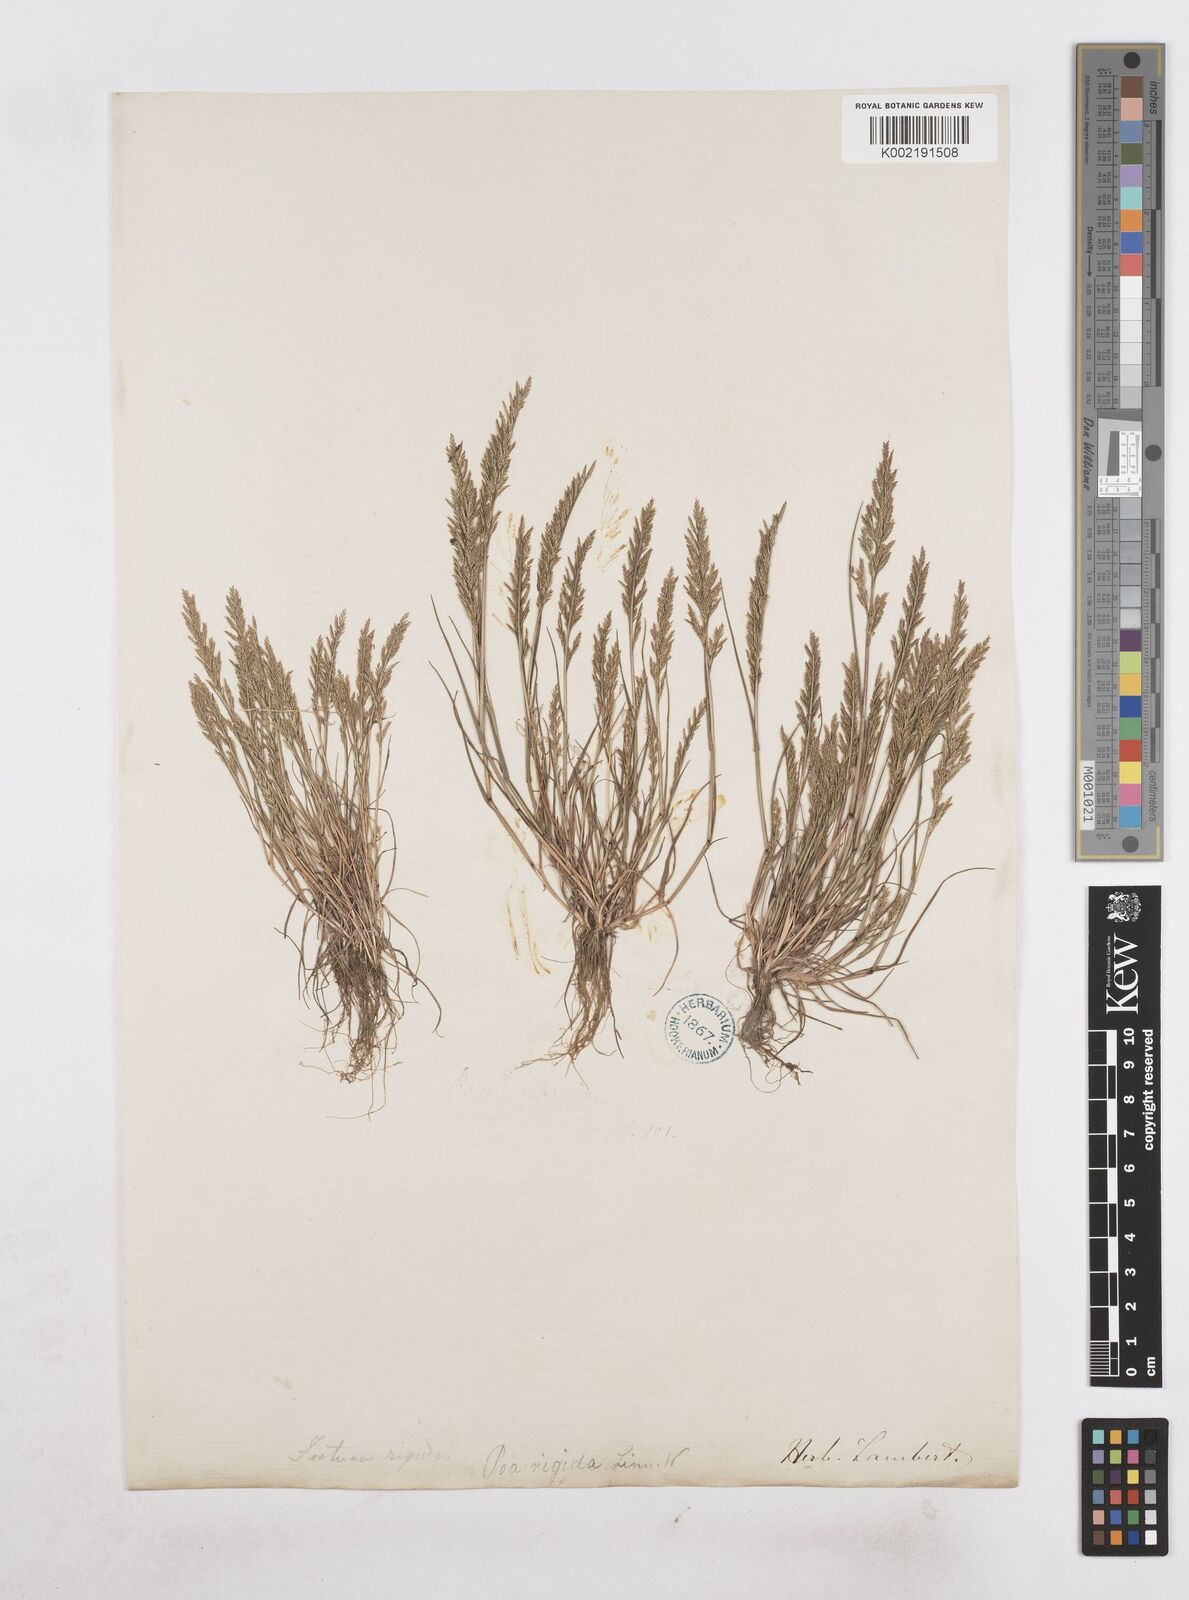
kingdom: Plantae
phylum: Tracheophyta
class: Liliopsida
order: Poales
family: Poaceae
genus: Catapodium
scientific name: Catapodium rigidum
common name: Fern-grass
